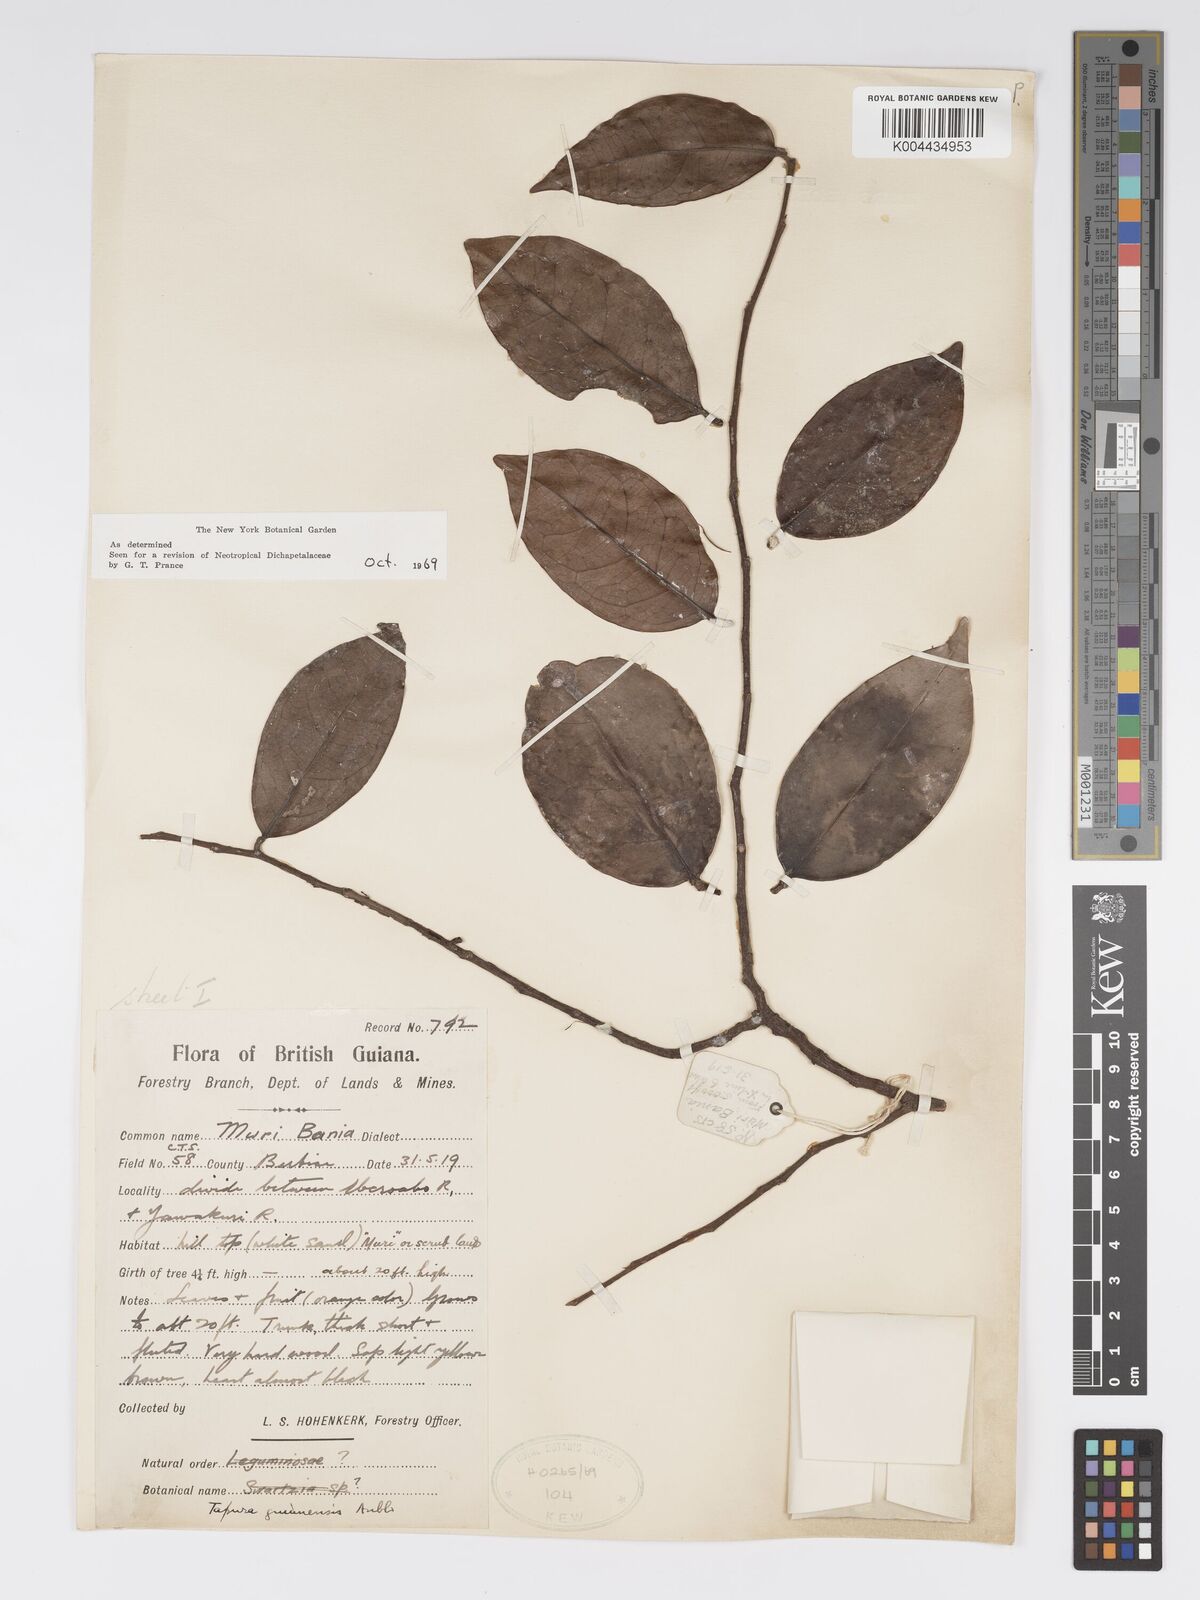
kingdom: Plantae
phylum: Tracheophyta
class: Magnoliopsida
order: Malpighiales
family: Dichapetalaceae
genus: Tapura
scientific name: Tapura guianensis
